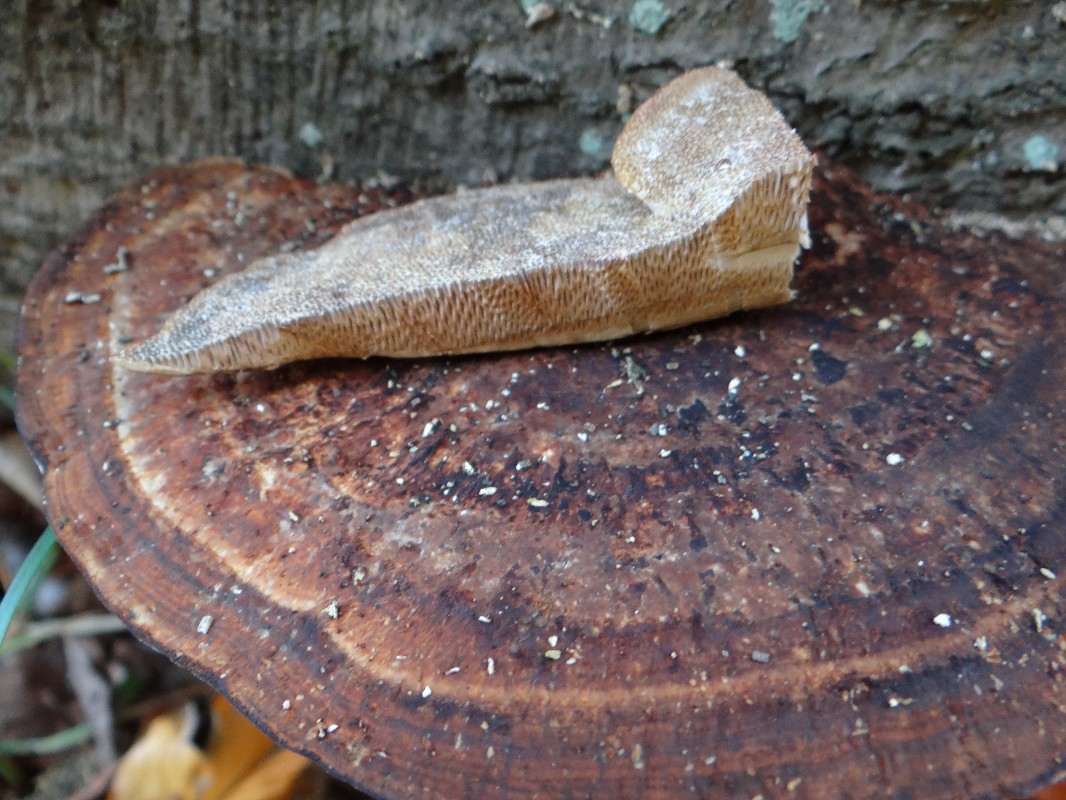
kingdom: Fungi
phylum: Basidiomycota
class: Agaricomycetes
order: Polyporales
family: Polyporaceae
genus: Daedaleopsis
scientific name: Daedaleopsis confragosa
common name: rødmende læderporesvamp
